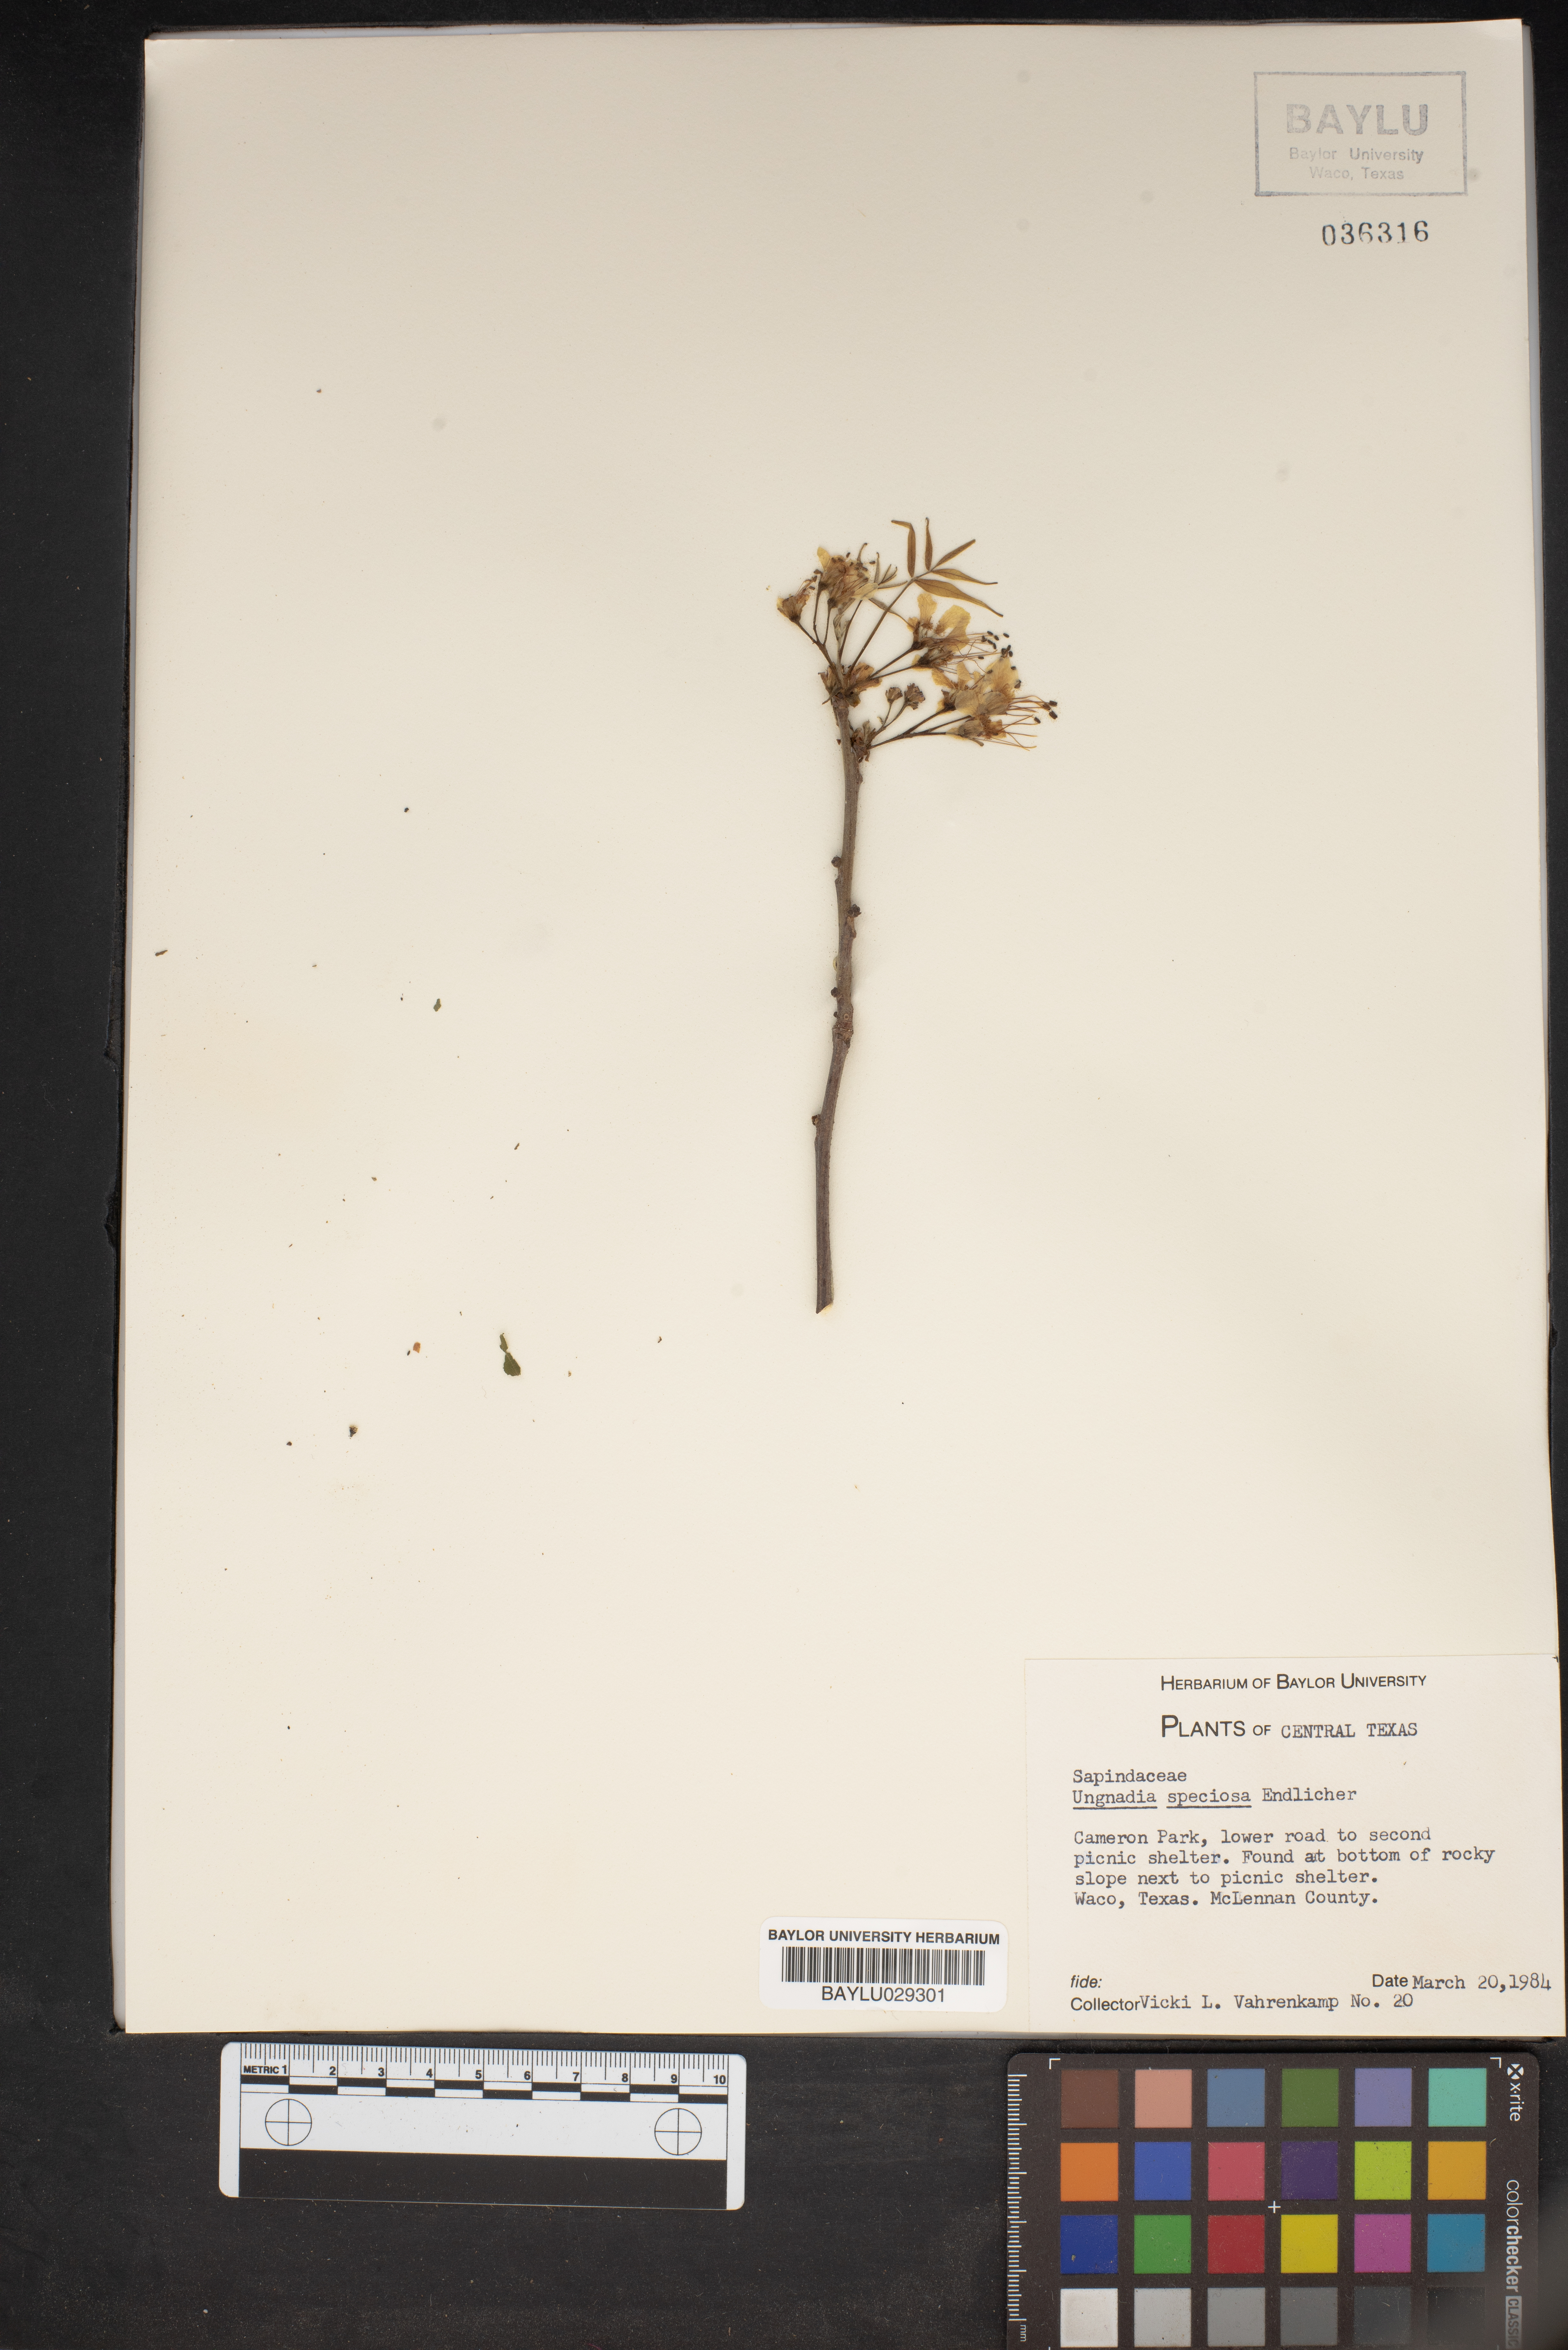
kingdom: Plantae
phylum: Tracheophyta
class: Magnoliopsida
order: Sapindales
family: Sapindaceae
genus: Ungnadia
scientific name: Ungnadia speciosa
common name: Texas-buckeye
